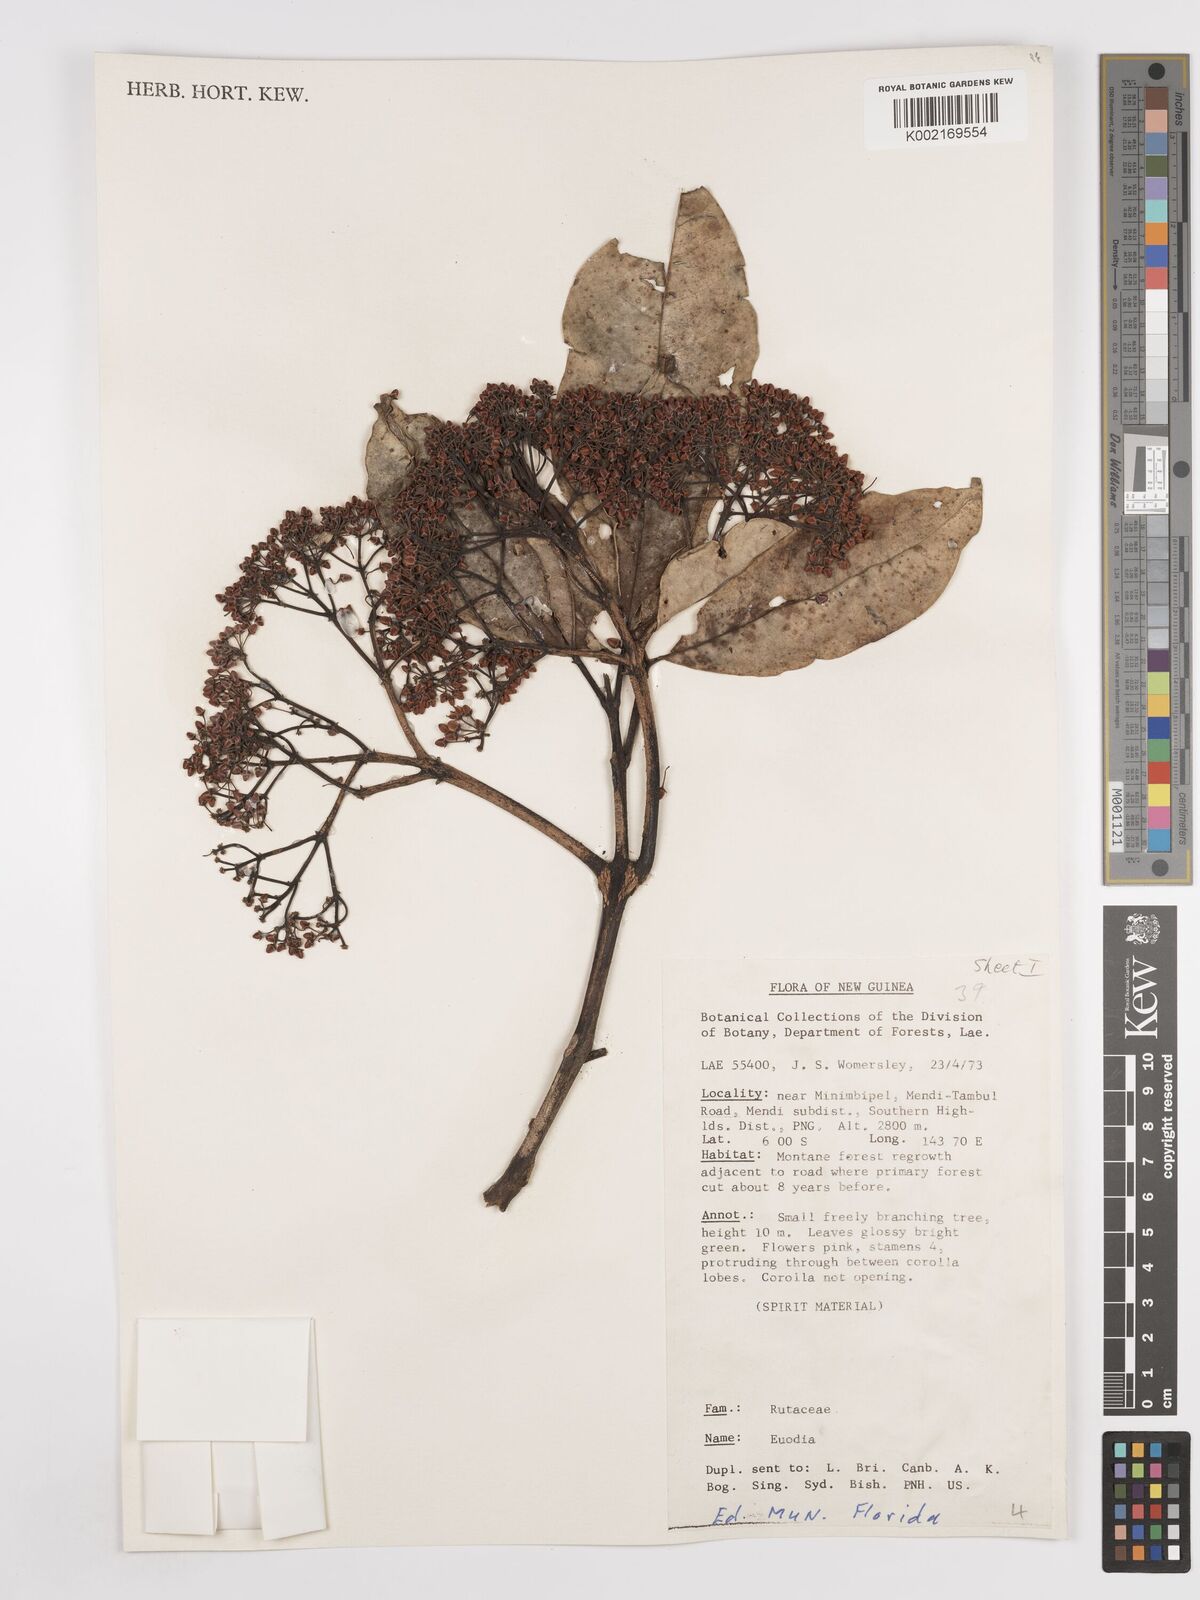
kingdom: Plantae
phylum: Tracheophyta
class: Magnoliopsida
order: Sapindales
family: Rutaceae
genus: Euodia
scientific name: Euodia
